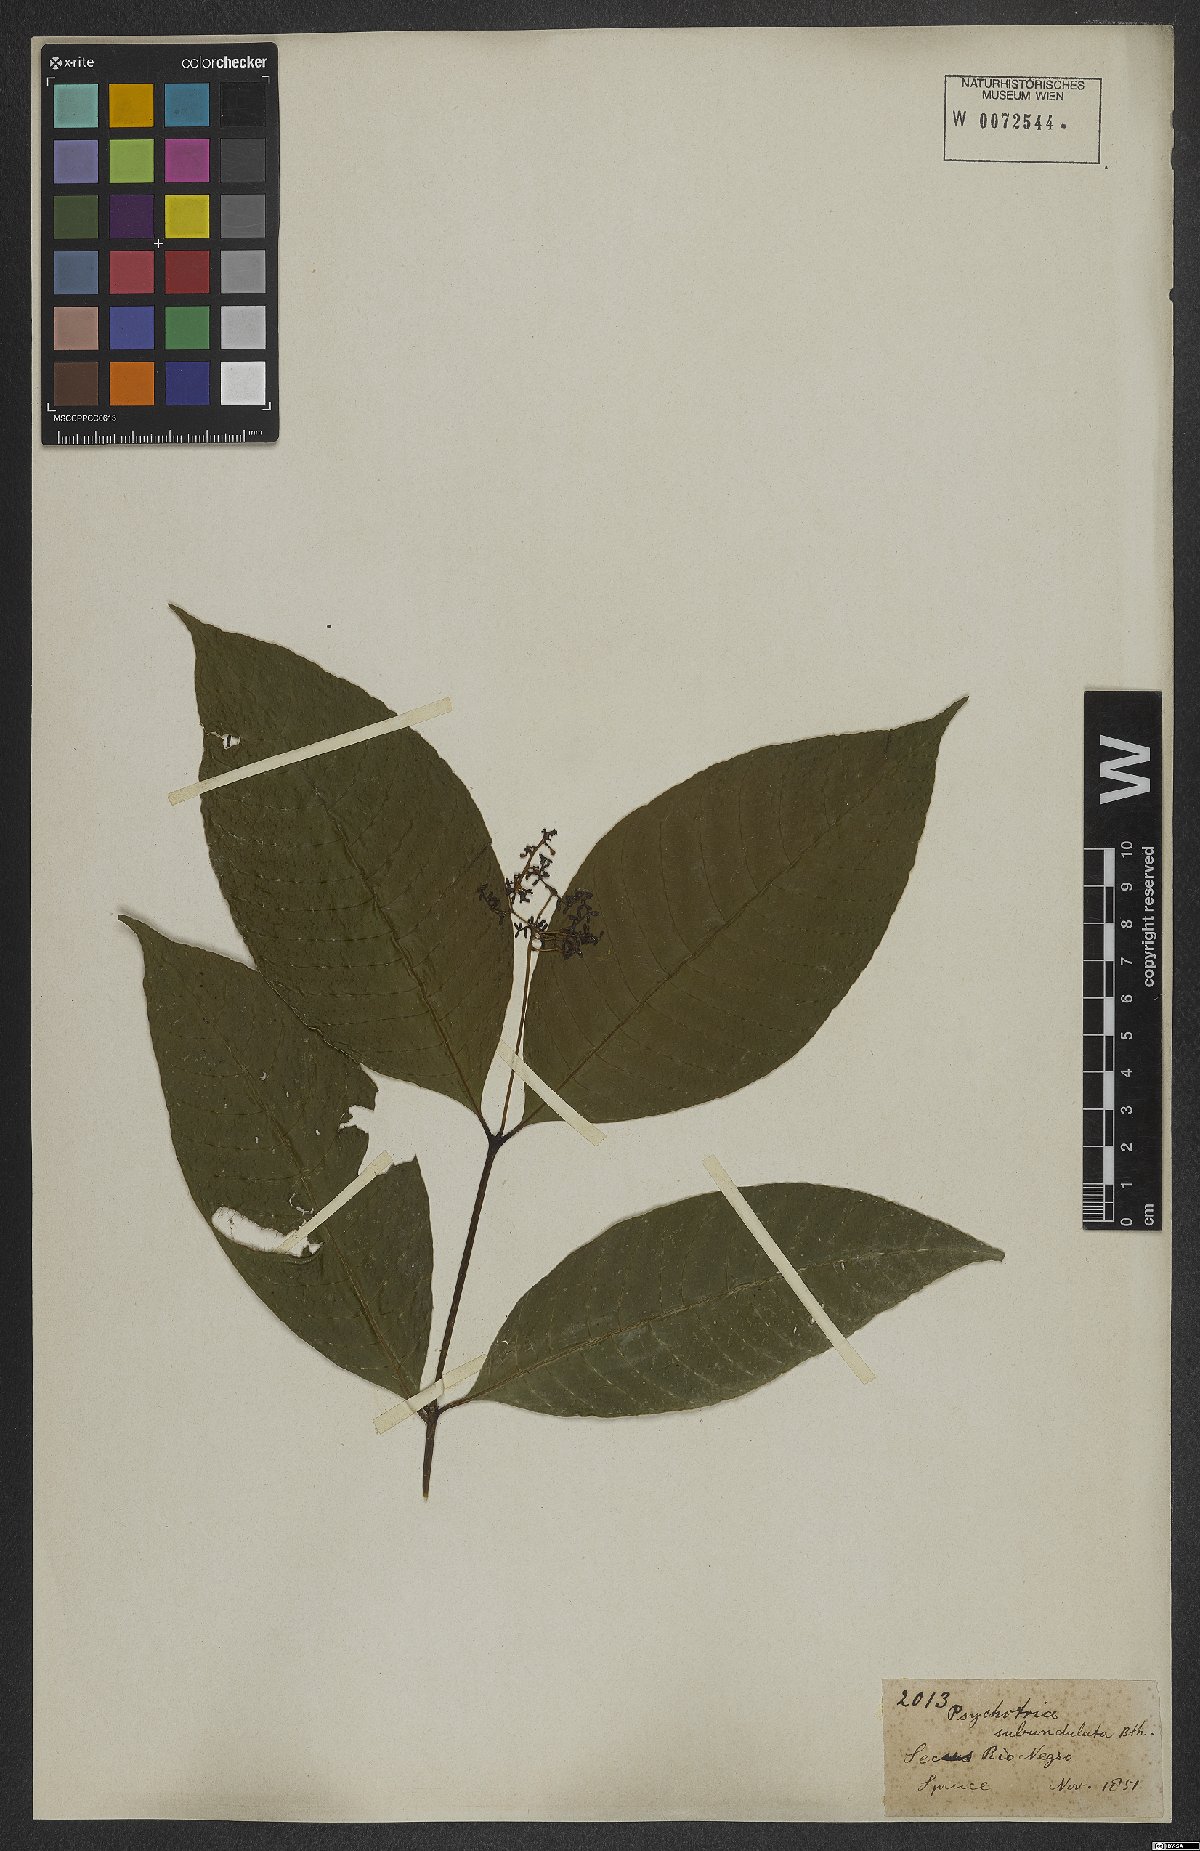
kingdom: Plantae
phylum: Tracheophyta
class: Magnoliopsida
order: Gentianales
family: Rubiaceae
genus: Palicourea
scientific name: Palicourea subundulata
